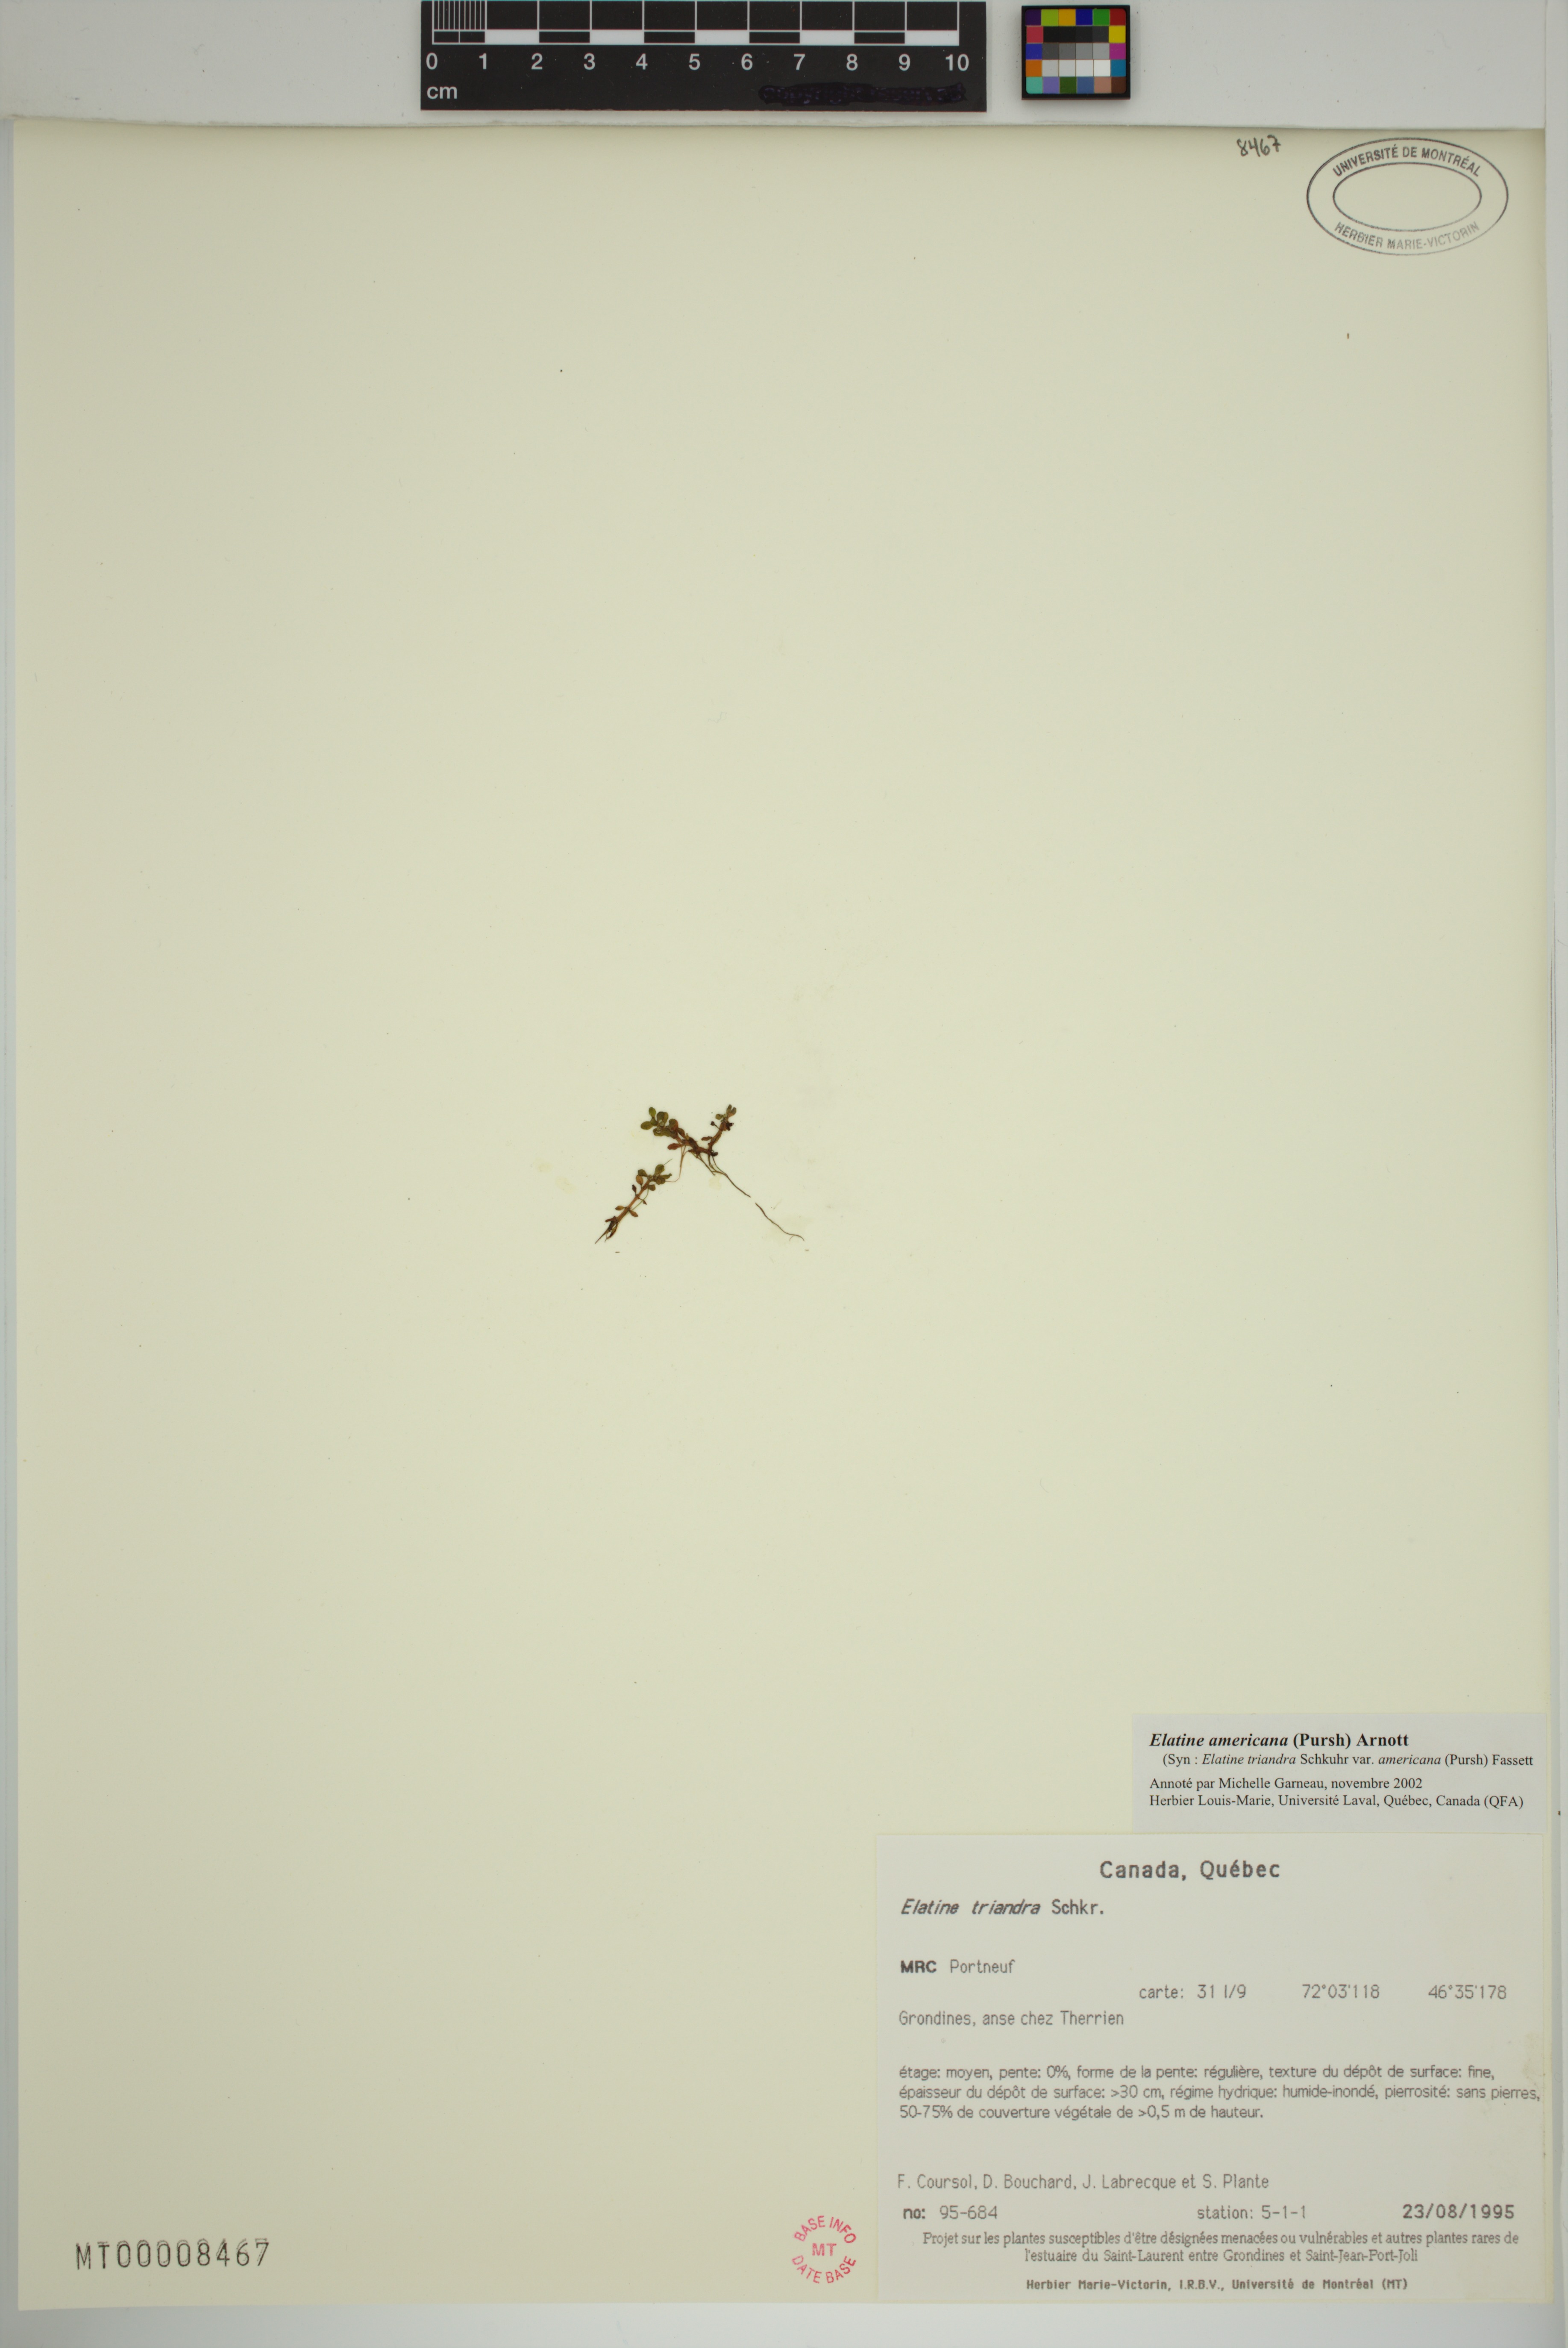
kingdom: Plantae
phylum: Tracheophyta
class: Magnoliopsida
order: Malpighiales
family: Elatinaceae
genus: Elatine
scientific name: Elatine americana
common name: American waterwort
